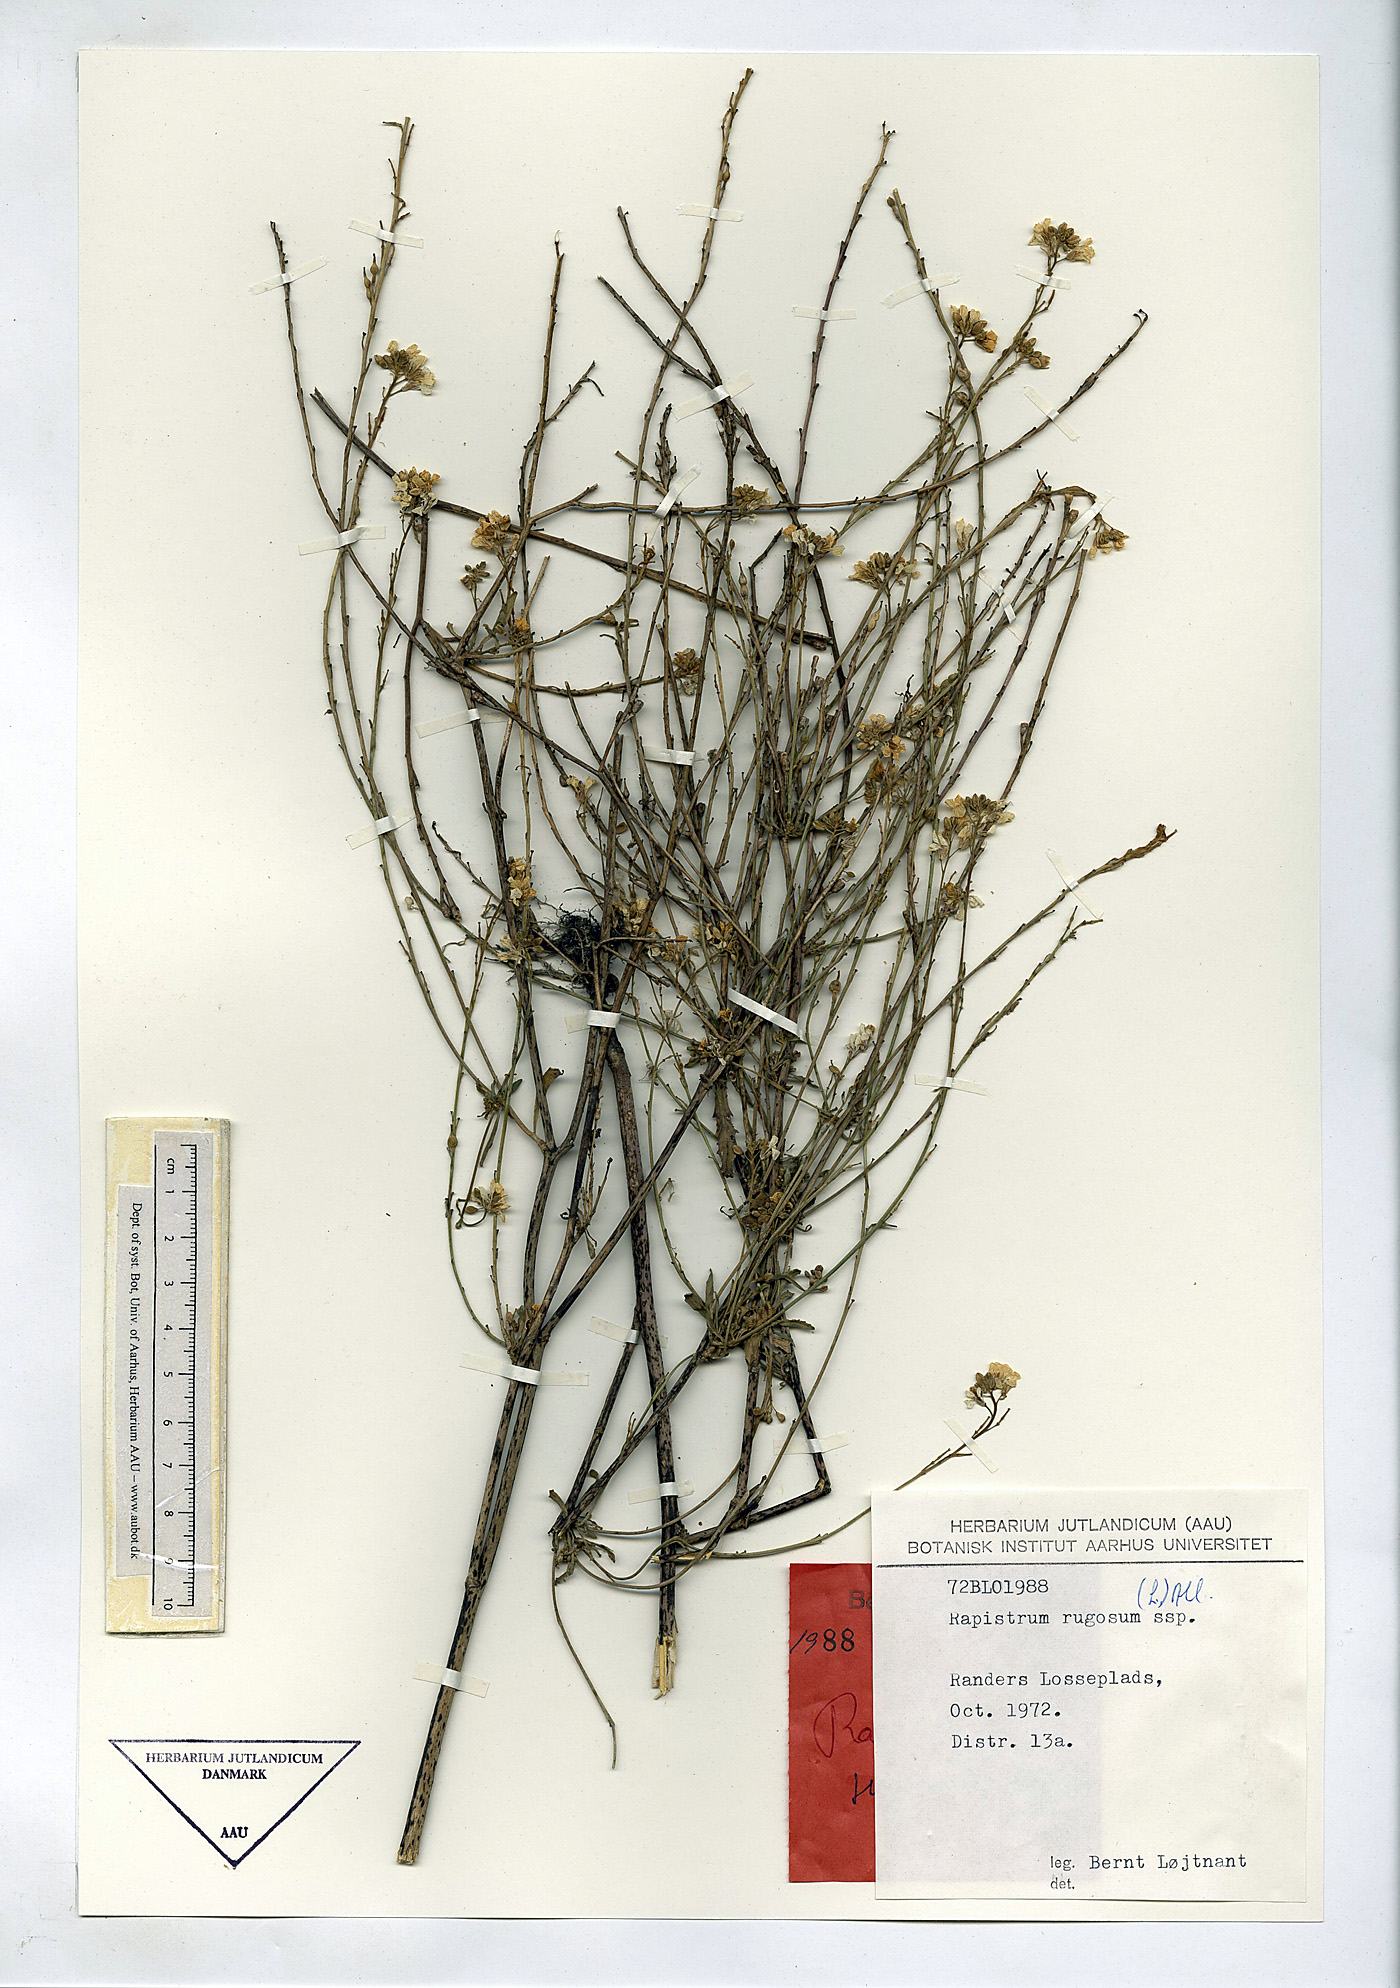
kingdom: Plantae
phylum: Tracheophyta
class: Magnoliopsida
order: Brassicales
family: Brassicaceae
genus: Rapistrum
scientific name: Rapistrum rugosum
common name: Annual bastardcabbage
